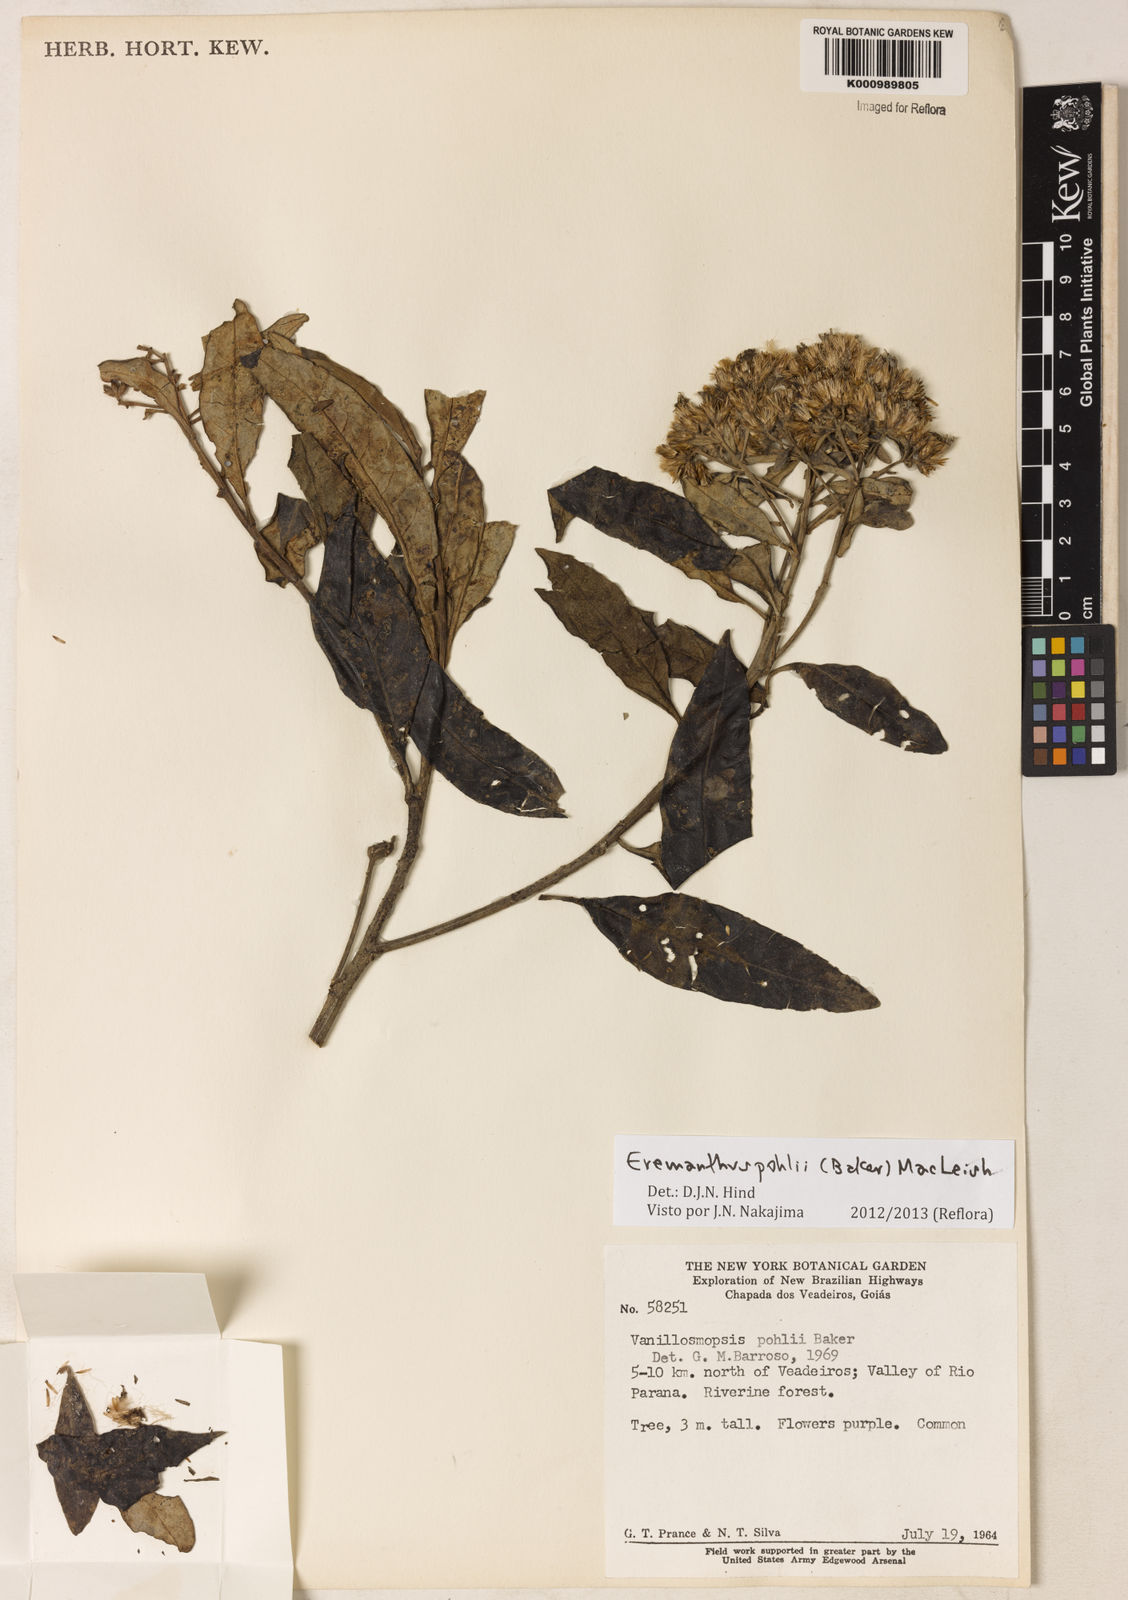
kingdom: Plantae
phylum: Tracheophyta
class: Magnoliopsida
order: Asterales
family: Asteraceae
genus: Eremanthus
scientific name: Eremanthus capitatus
